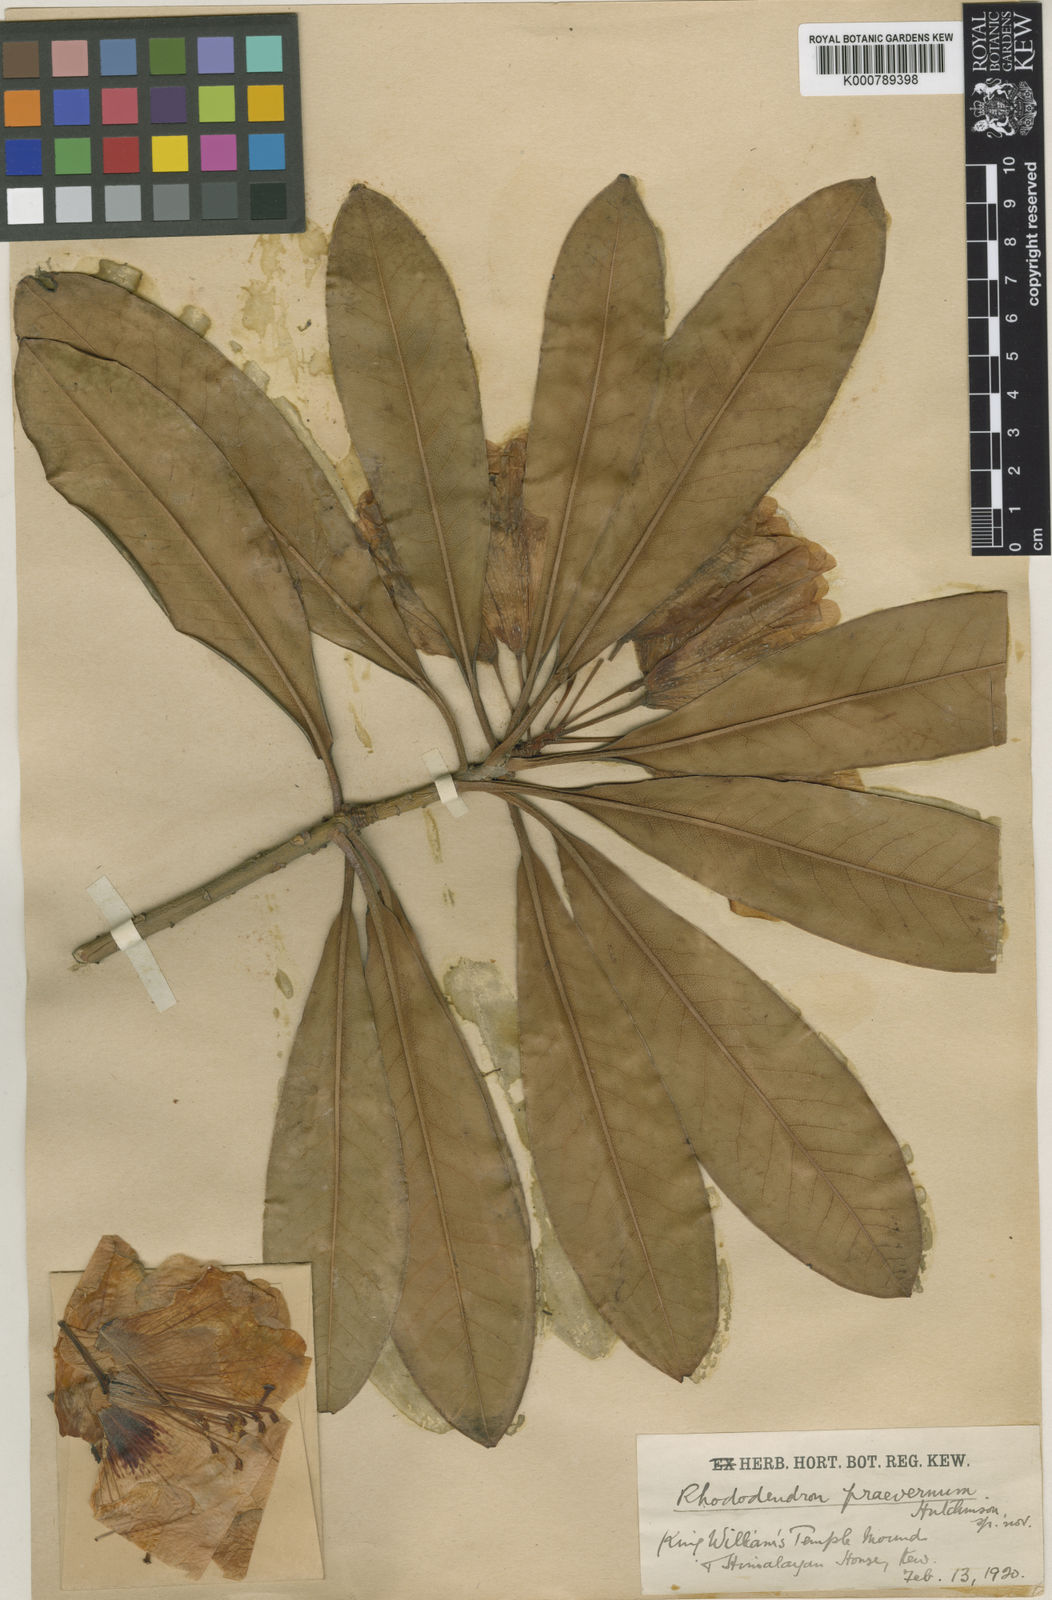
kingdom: Plantae
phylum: Tracheophyta
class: Magnoliopsida
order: Ericales
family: Ericaceae
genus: Rhododendron
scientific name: Rhododendron
